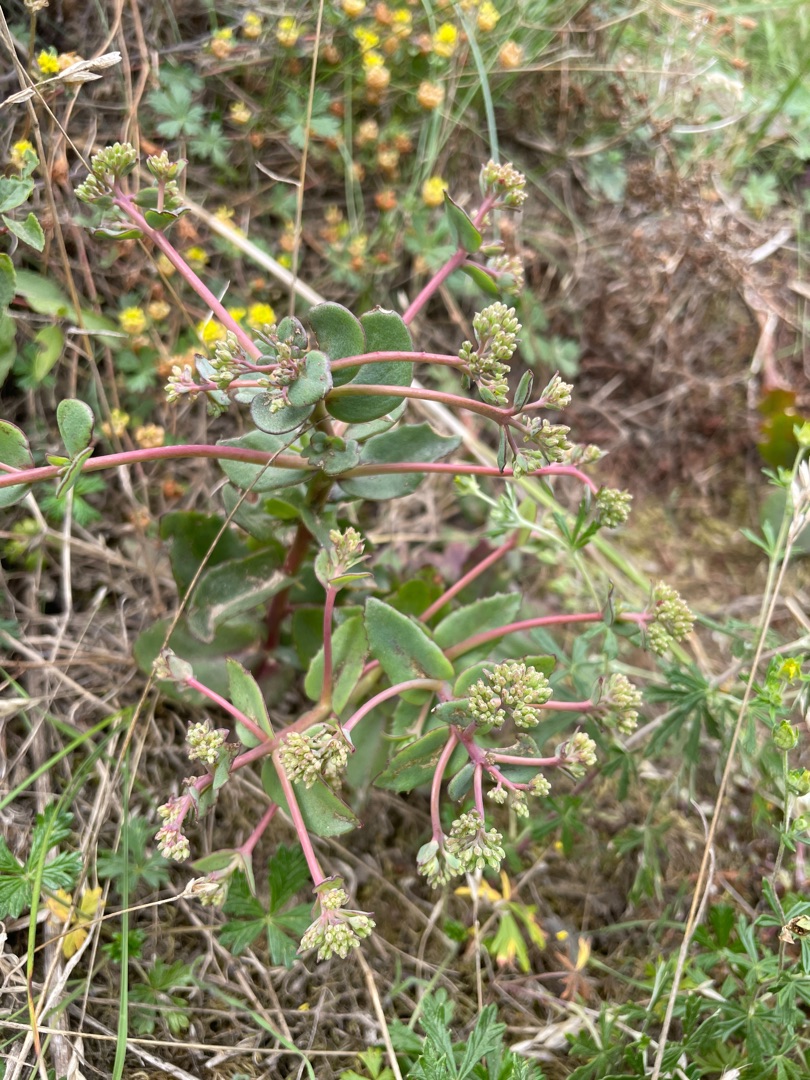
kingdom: Plantae
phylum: Tracheophyta
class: Magnoliopsida
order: Saxifragales
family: Crassulaceae
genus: Hylotelephium
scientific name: Hylotelephium maximum
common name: Almindelig sankthansurt
